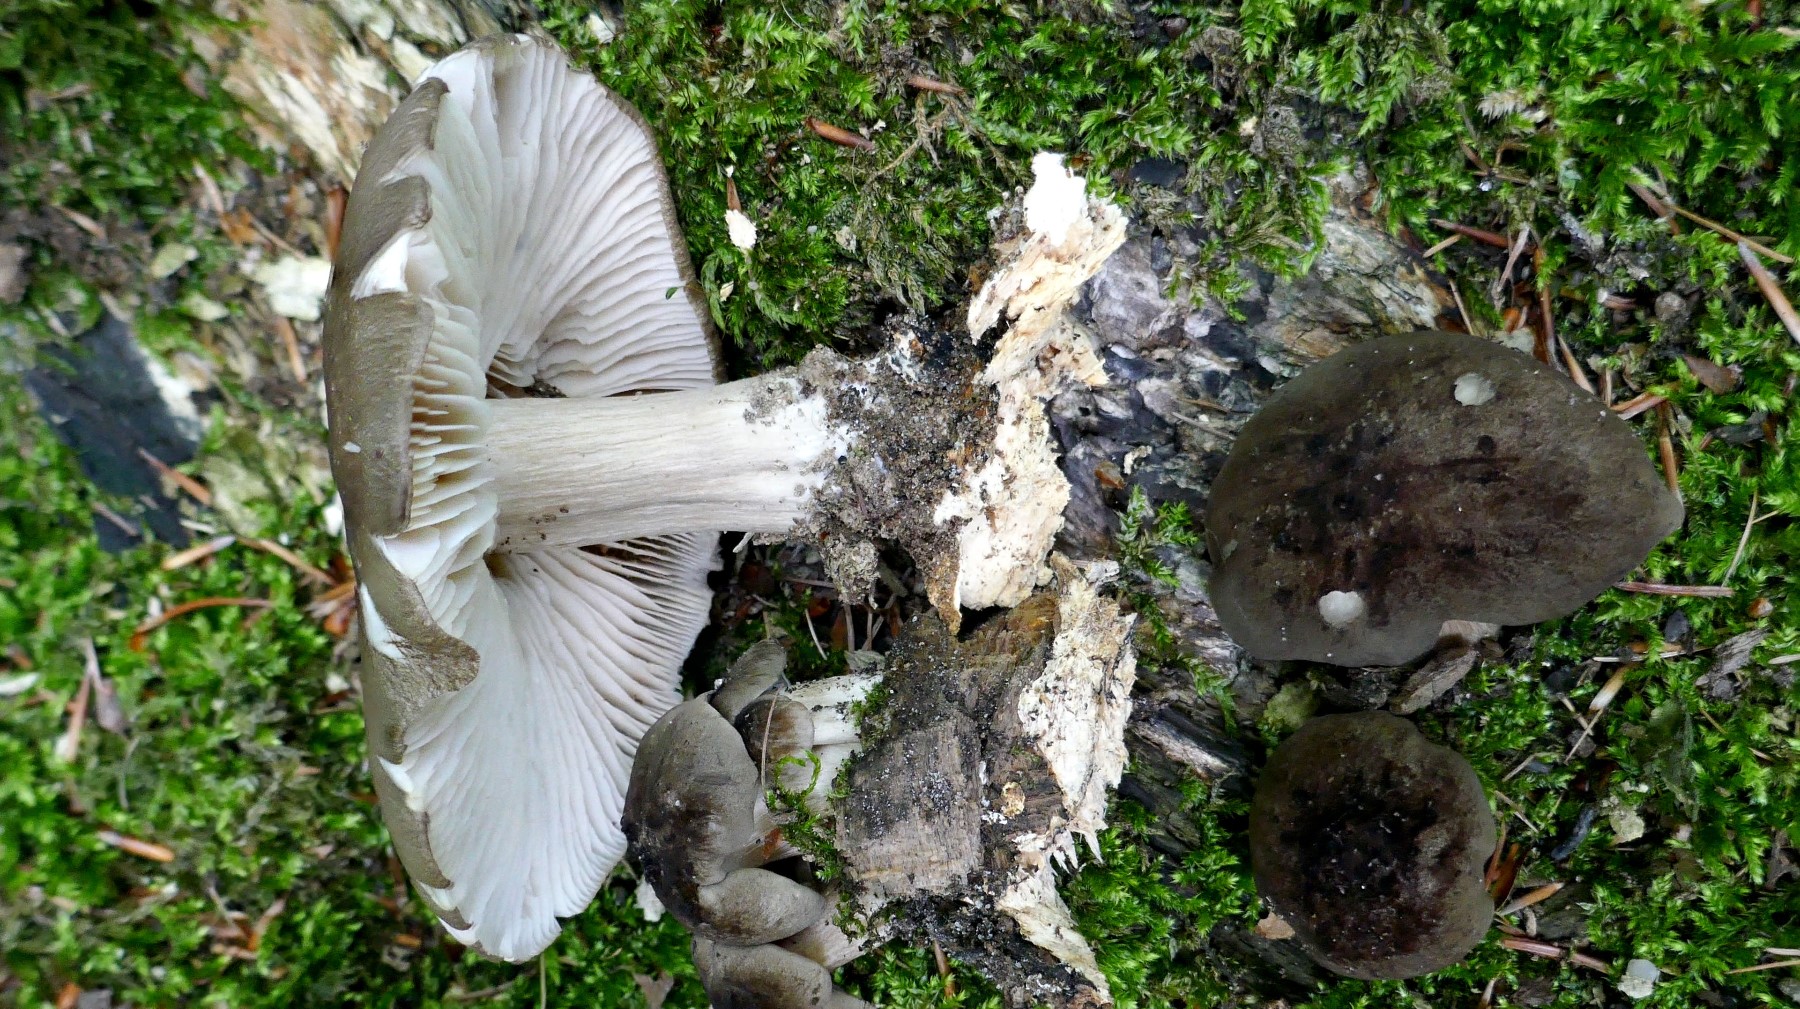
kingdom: Fungi
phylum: Basidiomycota
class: Agaricomycetes
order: Agaricales
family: Tricholomataceae
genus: Megacollybia
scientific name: Megacollybia platyphylla
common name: bredbladet væbnerhat
